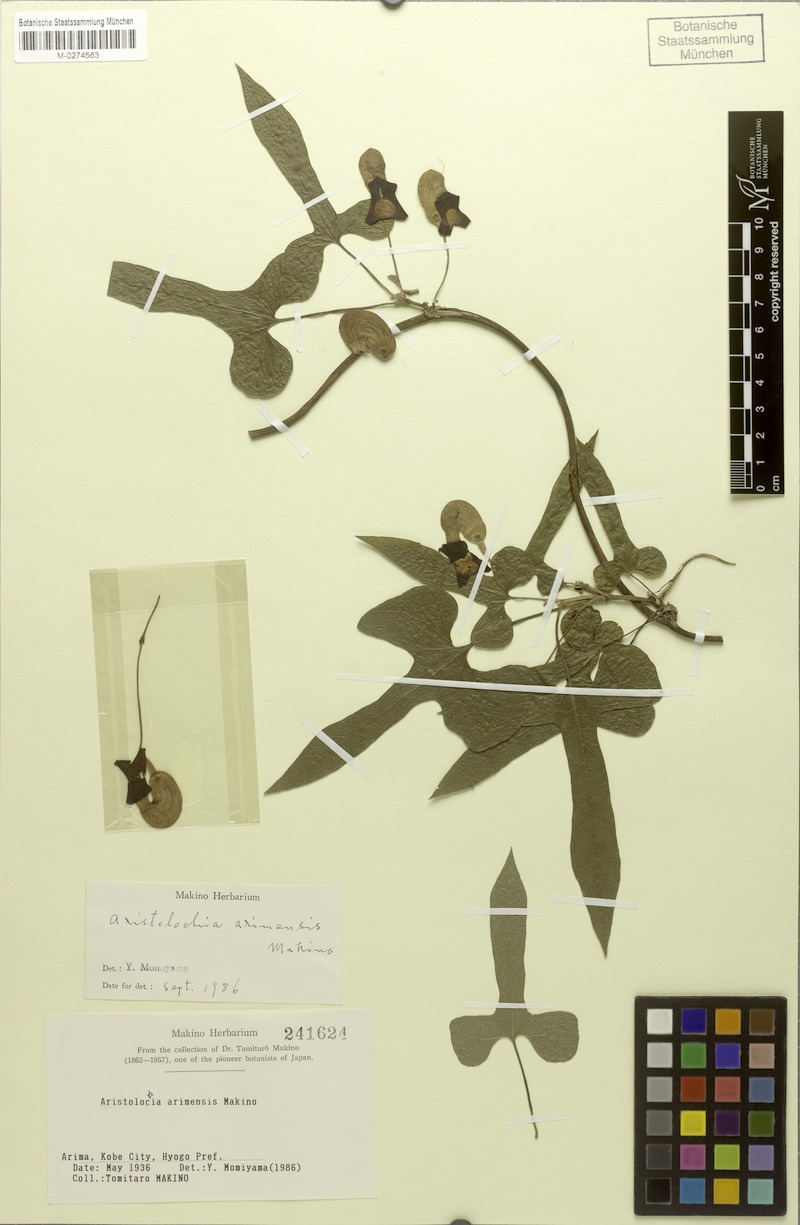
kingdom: Plantae
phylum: Tracheophyta
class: Magnoliopsida
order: Piperales
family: Aristolochiaceae
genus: Isotrema
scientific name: Isotrema shimadae
